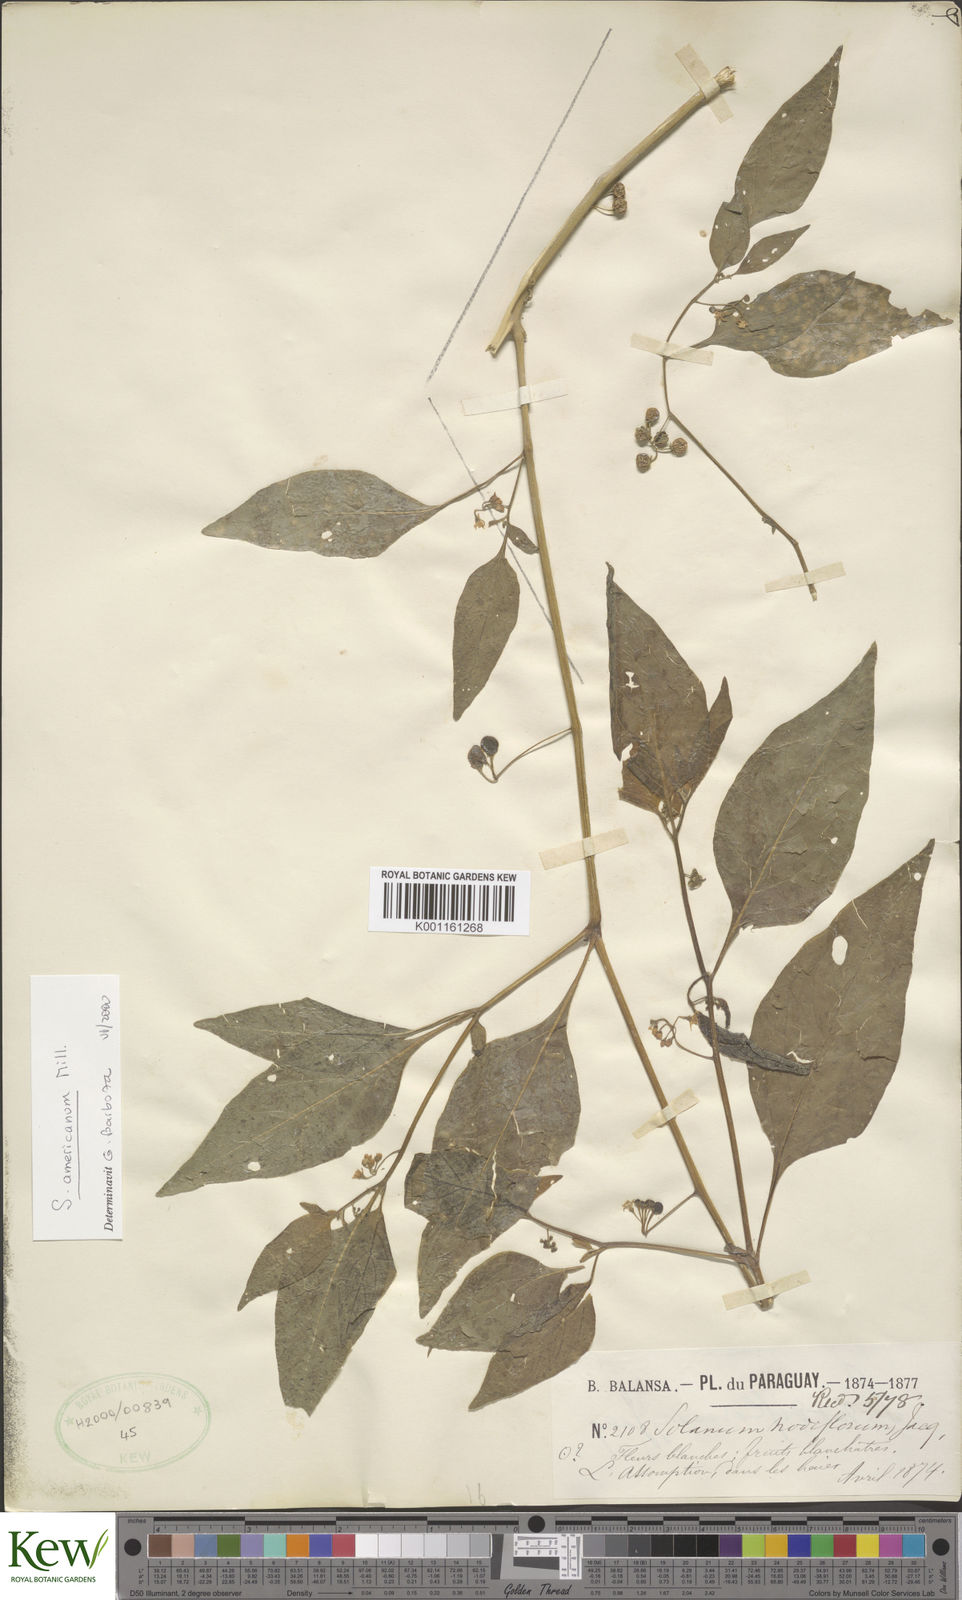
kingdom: Plantae
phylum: Tracheophyta
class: Magnoliopsida
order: Solanales
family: Solanaceae
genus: Solanum
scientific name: Solanum americanum
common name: American black nightshade
